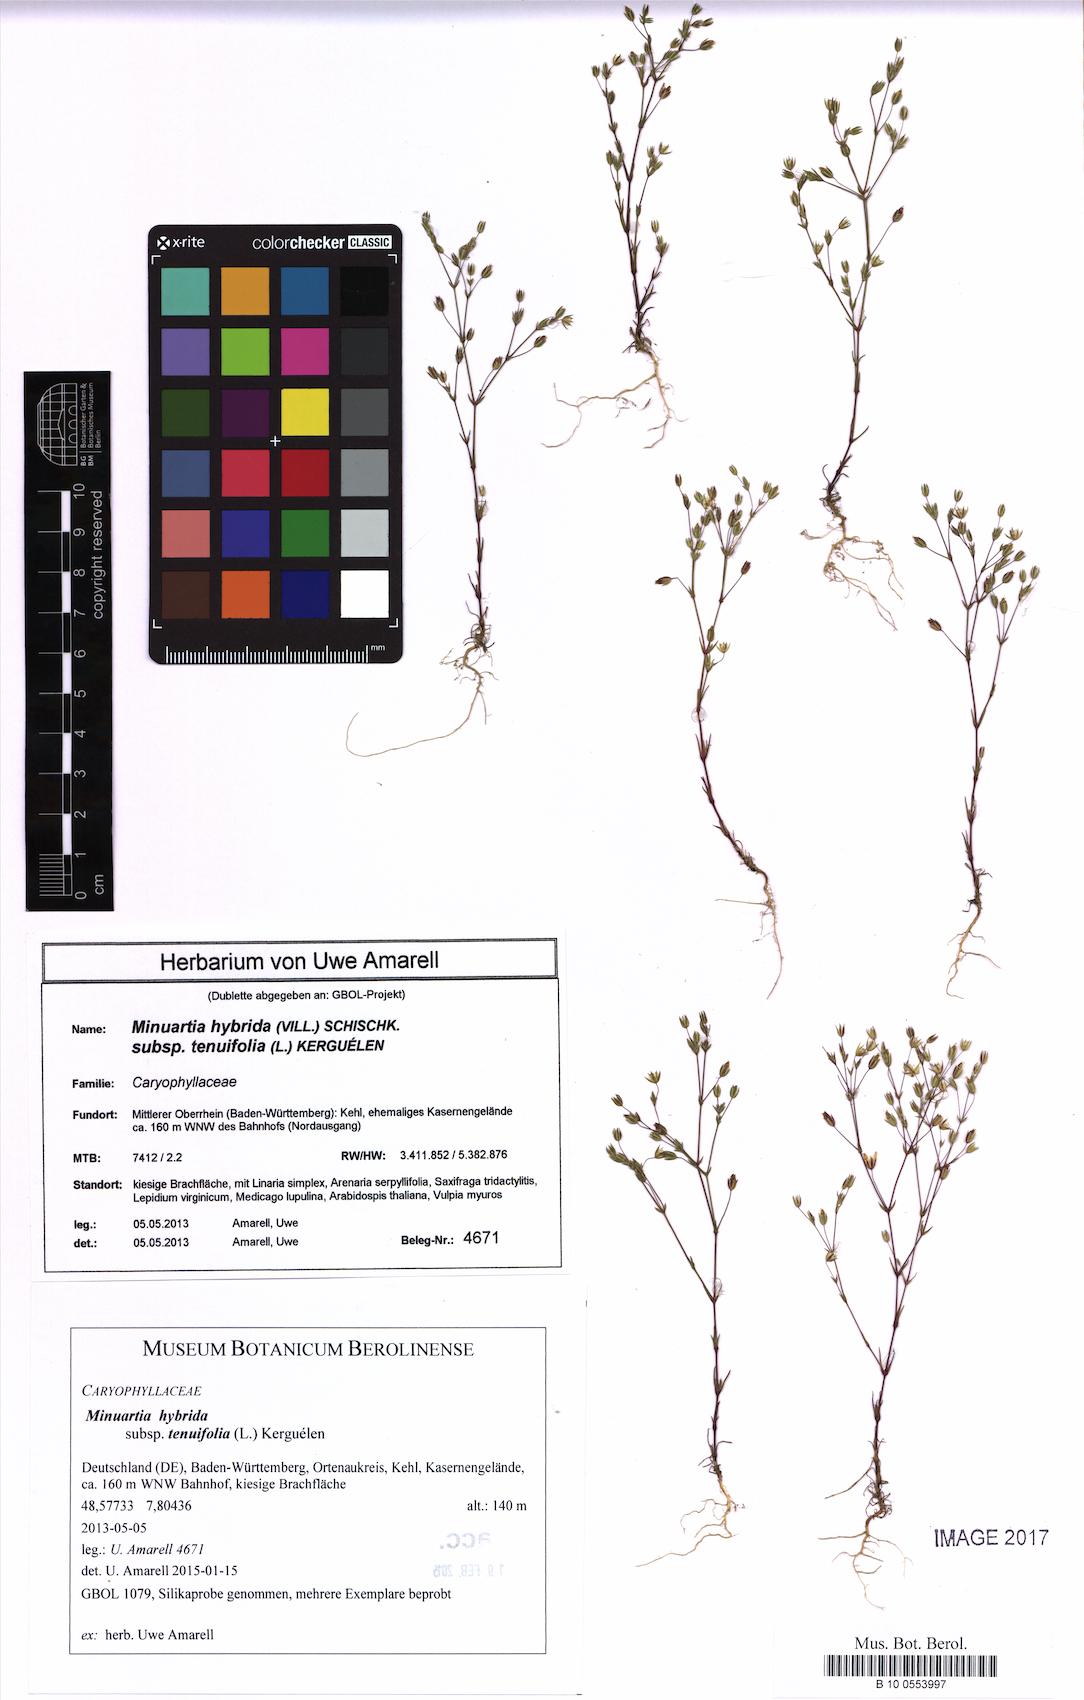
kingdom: Plantae
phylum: Tracheophyta
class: Magnoliopsida
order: Caryophyllales
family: Caryophyllaceae
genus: Sabulina
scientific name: Sabulina tenuifolia
